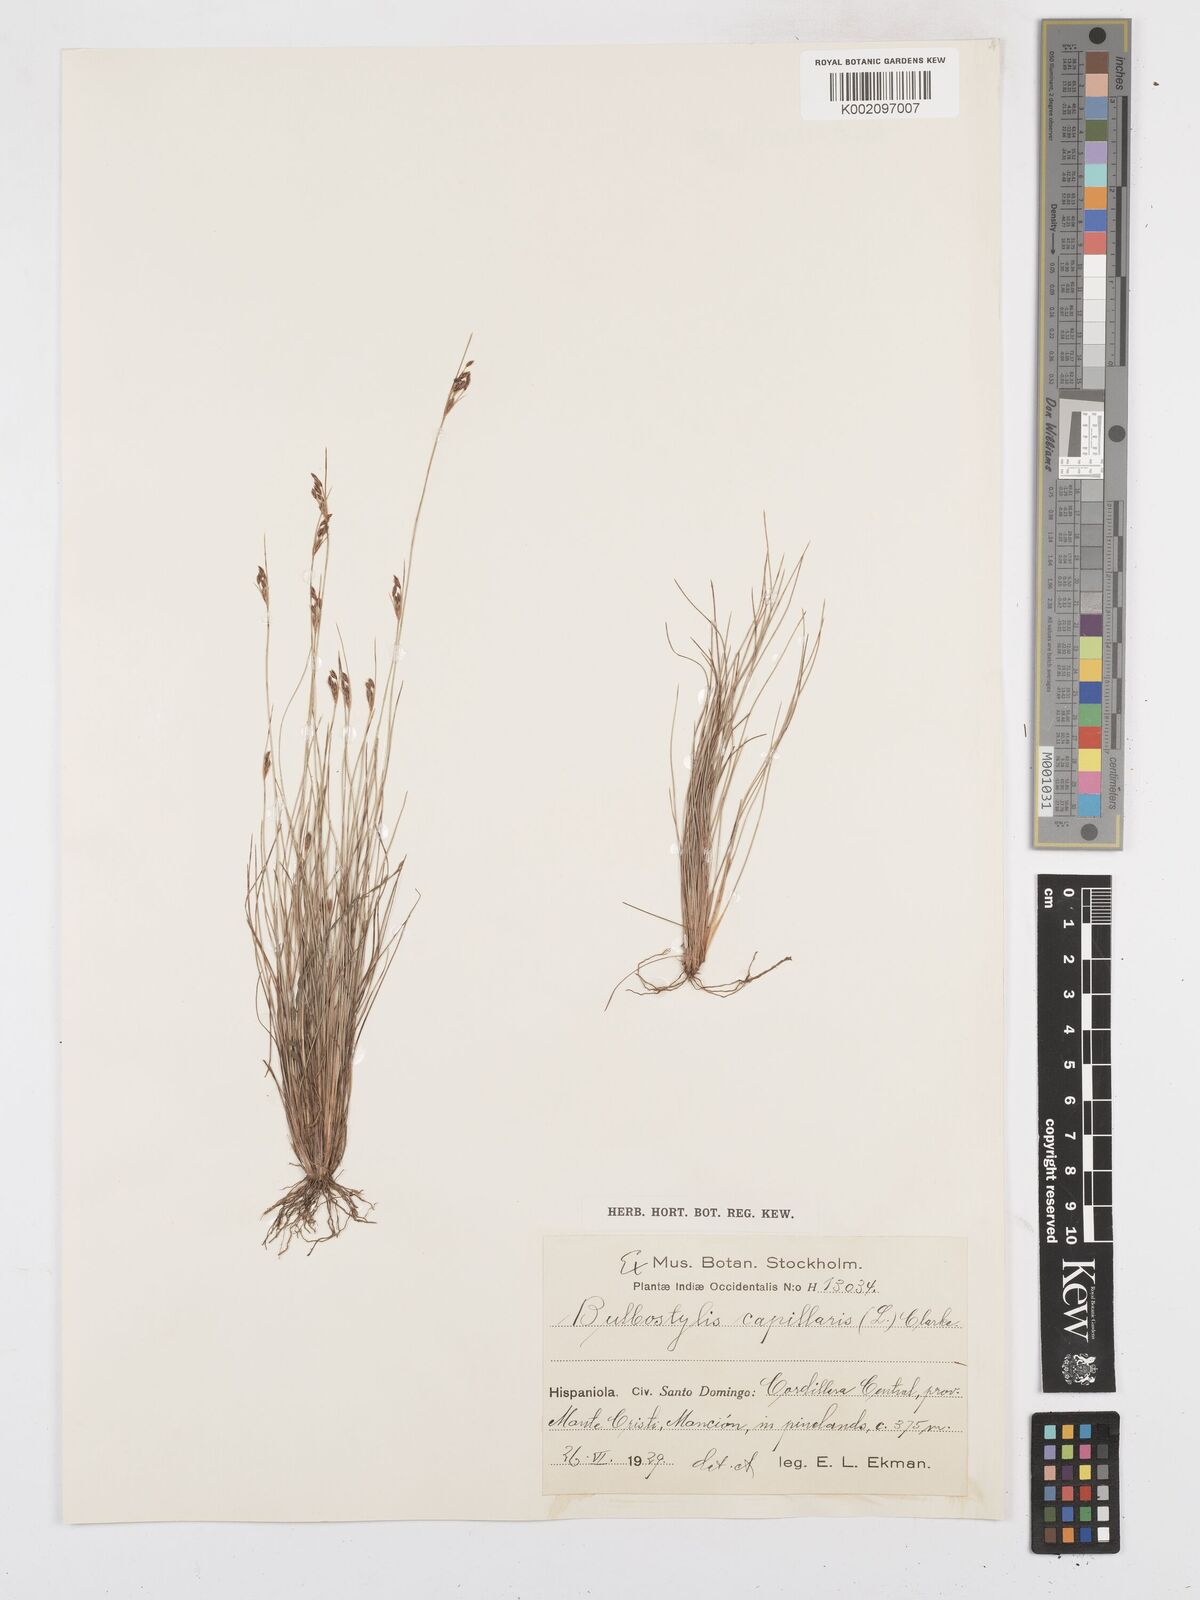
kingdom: Plantae
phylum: Tracheophyta
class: Liliopsida
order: Poales
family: Cyperaceae
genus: Bulbostylis
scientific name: Bulbostylis capillaris
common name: Densetuft hairsedge
